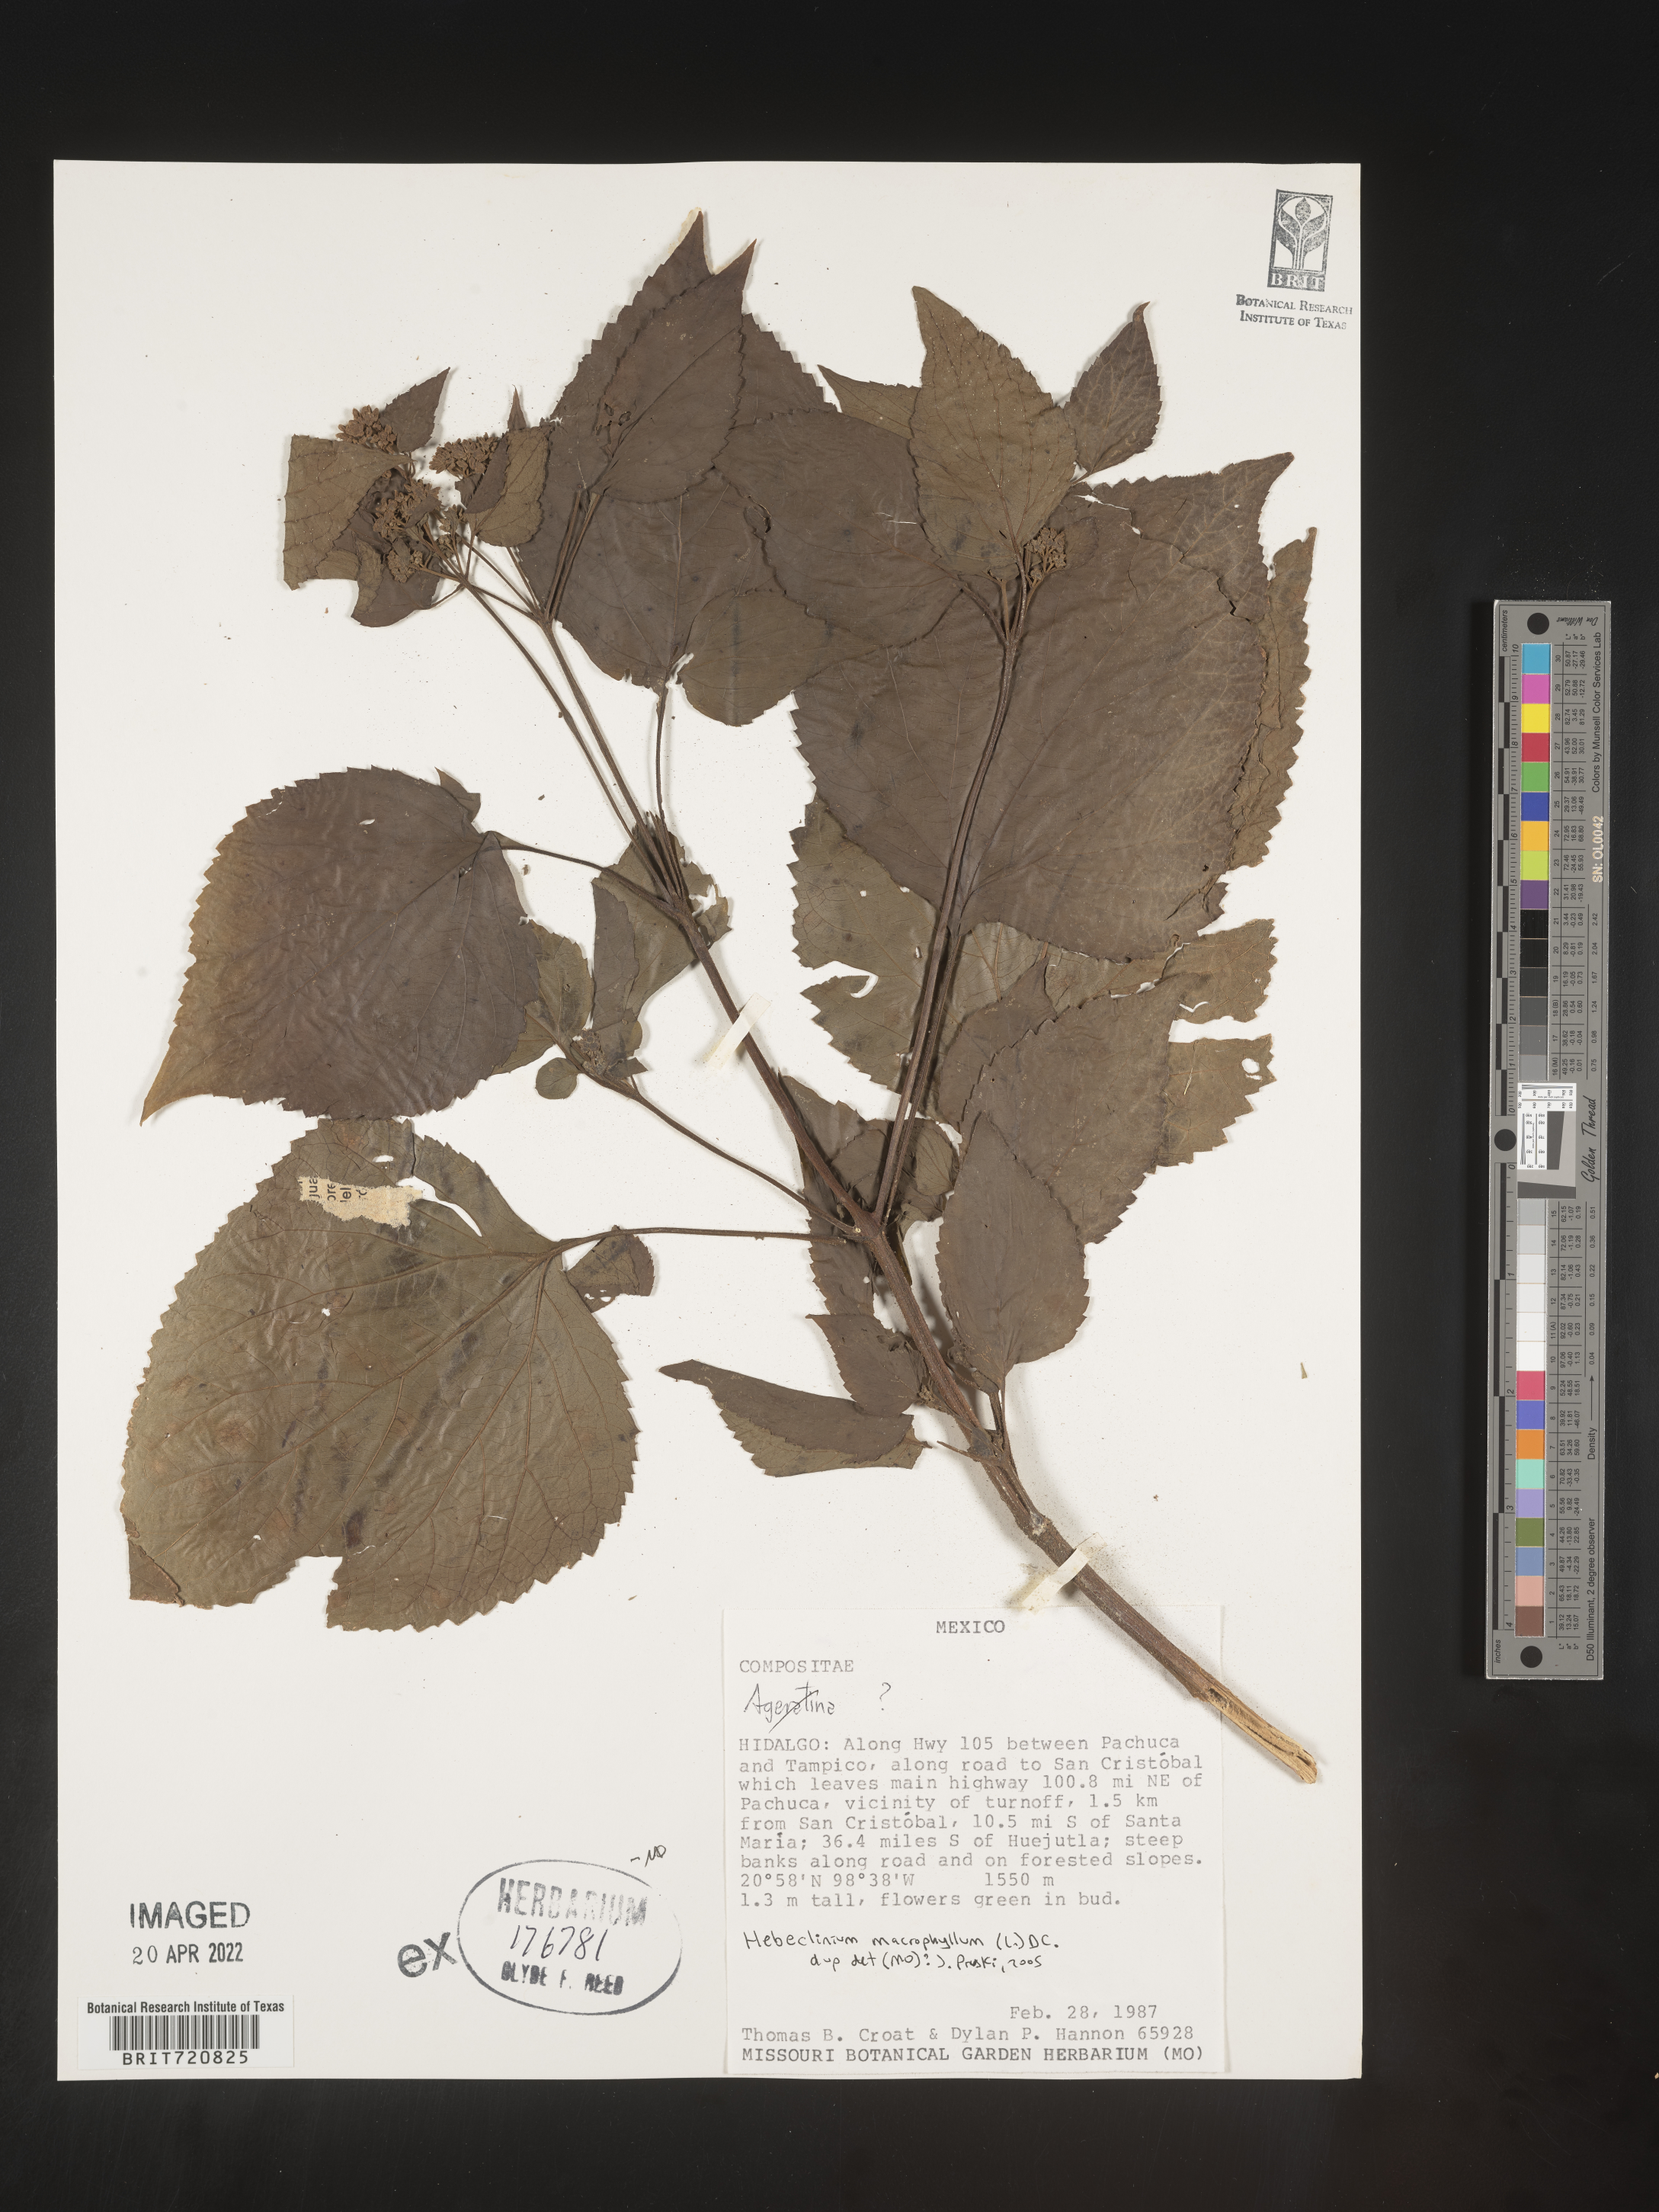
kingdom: Plantae
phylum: Tracheophyta
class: Magnoliopsida
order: Asterales
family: Asteraceae
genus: Hebeclinium
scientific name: Hebeclinium
